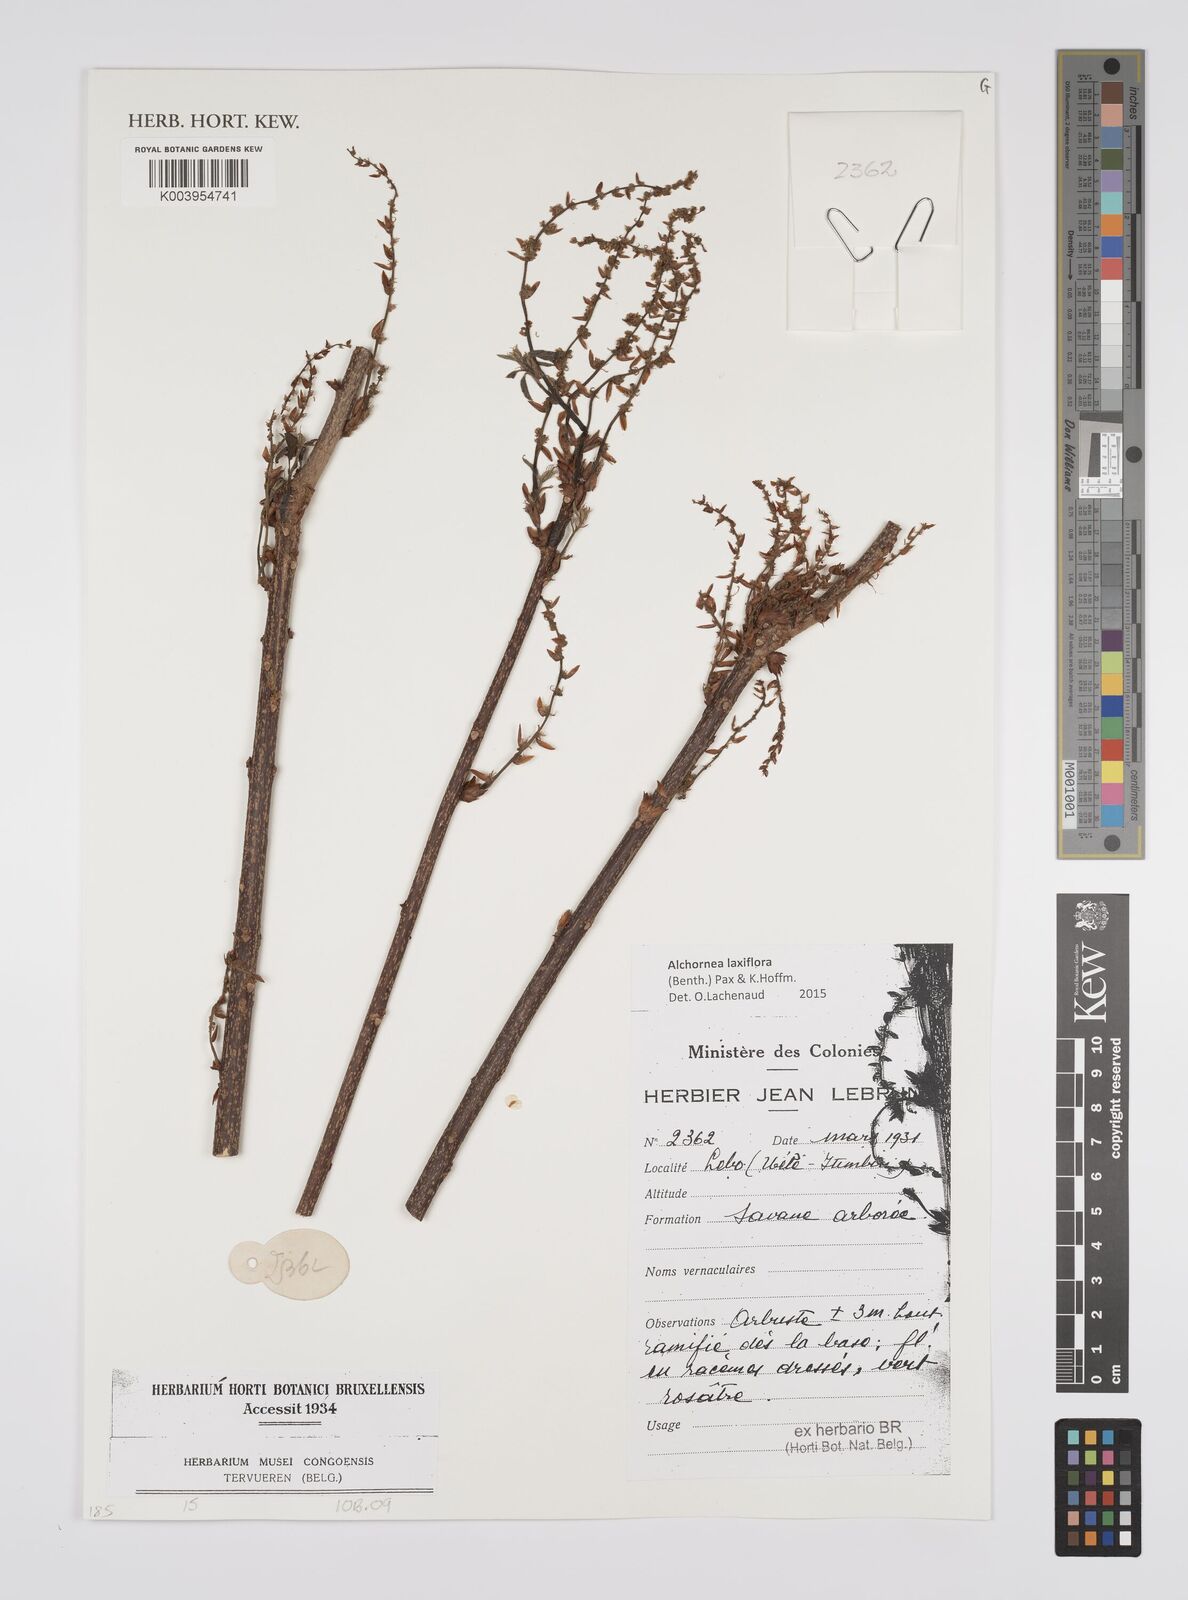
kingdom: Plantae
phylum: Tracheophyta
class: Magnoliopsida
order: Malpighiales
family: Euphorbiaceae
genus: Alchornea
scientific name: Alchornea laxiflora
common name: Lowveld bead-string
